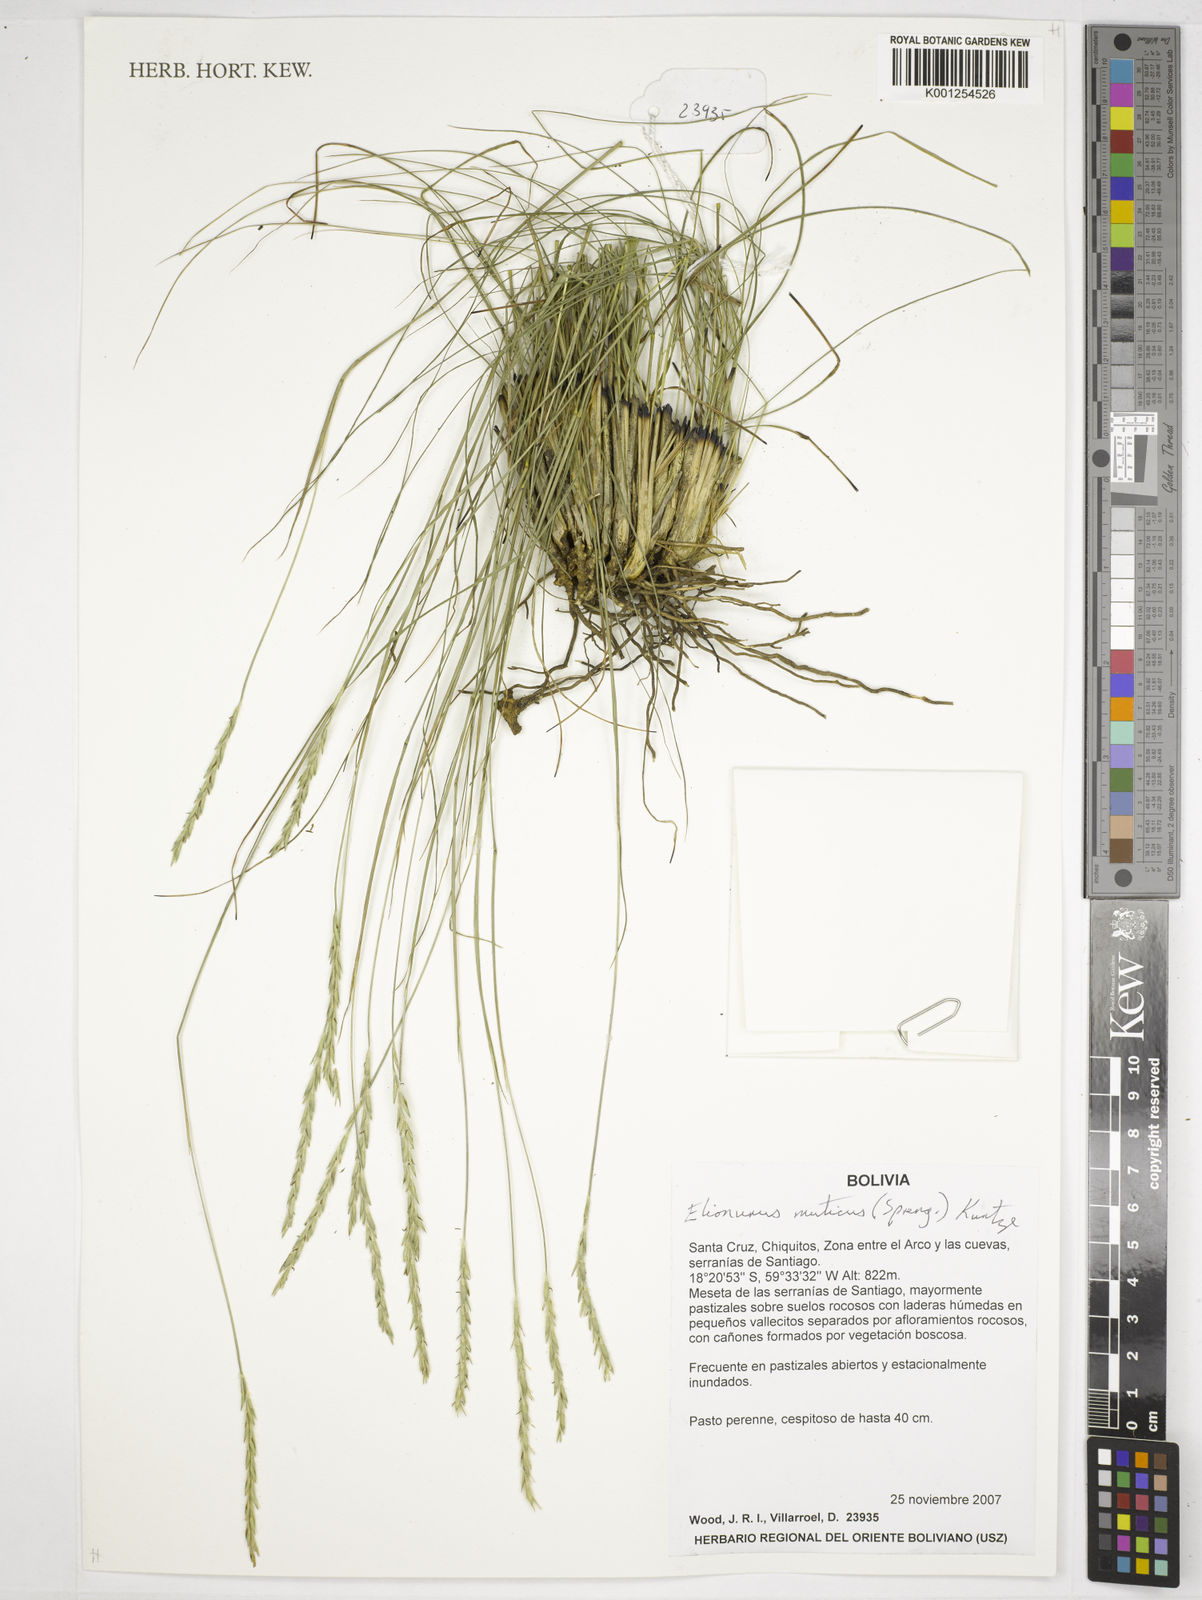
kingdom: Plantae
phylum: Tracheophyta
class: Liliopsida
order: Poales
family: Poaceae
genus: Elionurus
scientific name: Elionurus muticus
